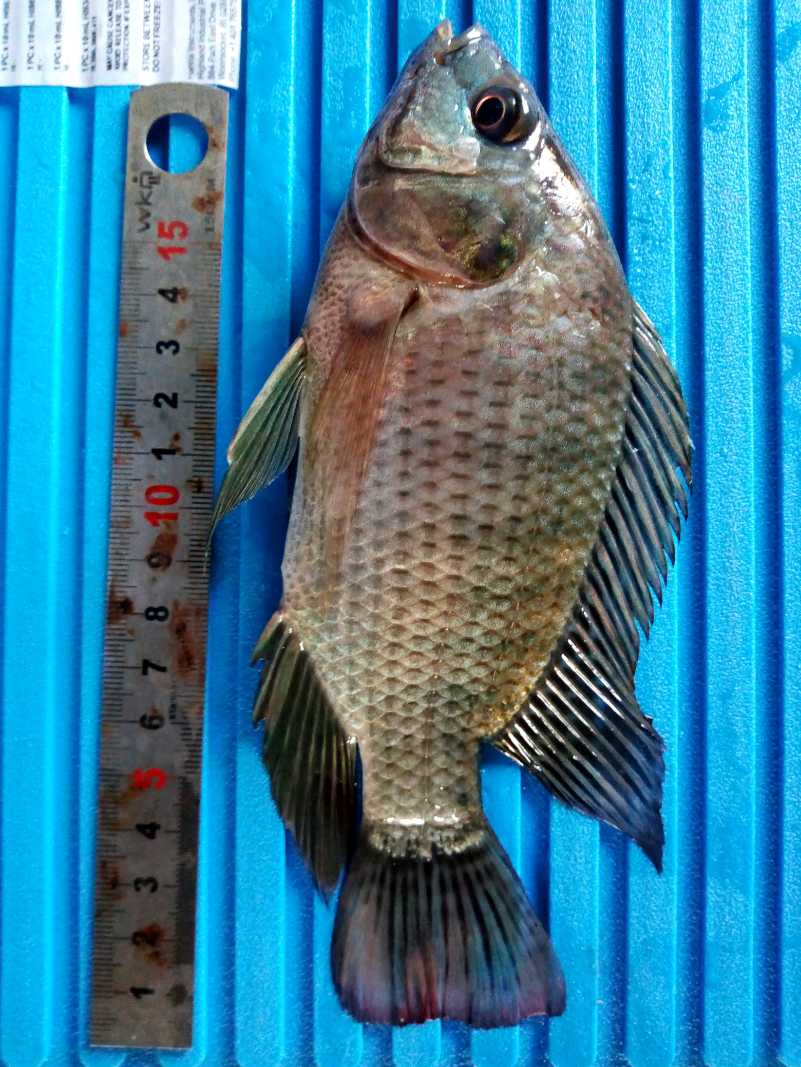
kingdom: Animalia
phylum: Chordata
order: Perciformes
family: Cichlidae
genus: Oreochromis
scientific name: Oreochromis niloticus
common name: Nile tilapia
